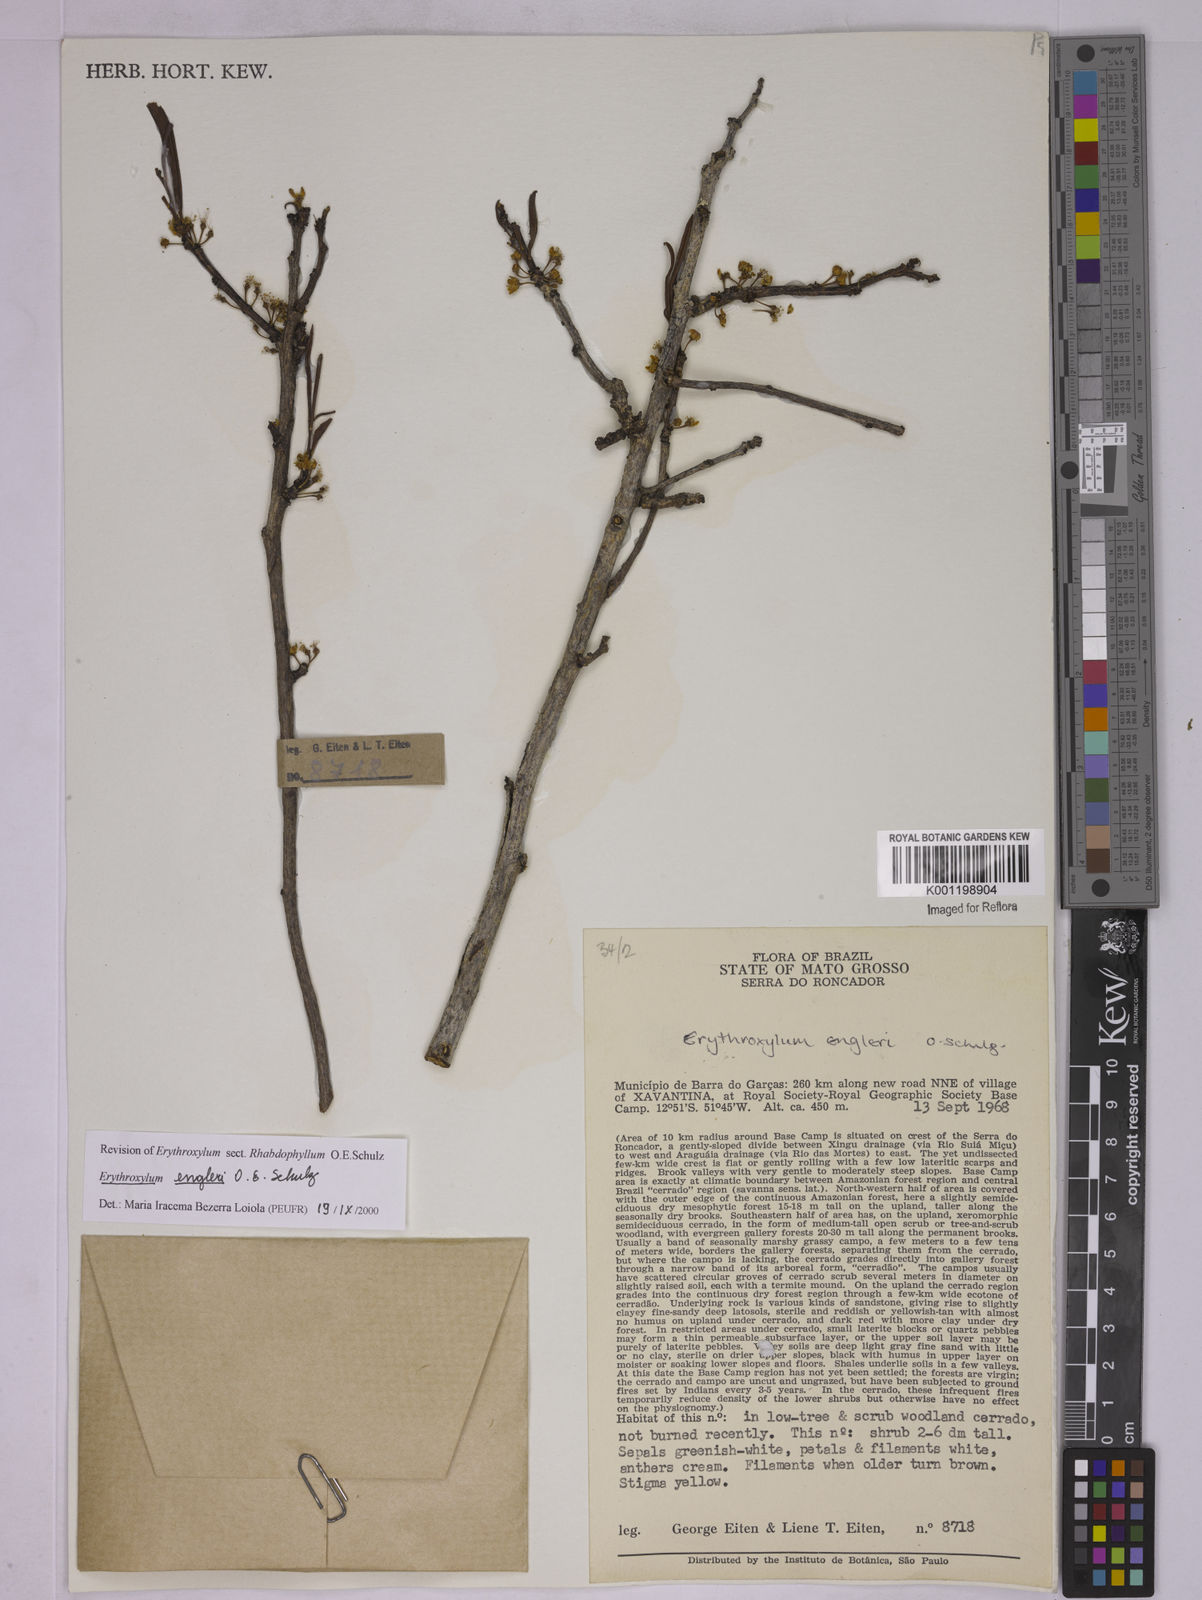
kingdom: Plantae
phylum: Tracheophyta
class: Magnoliopsida
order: Malpighiales
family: Erythroxylaceae
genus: Erythroxylum
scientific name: Erythroxylum engleri
